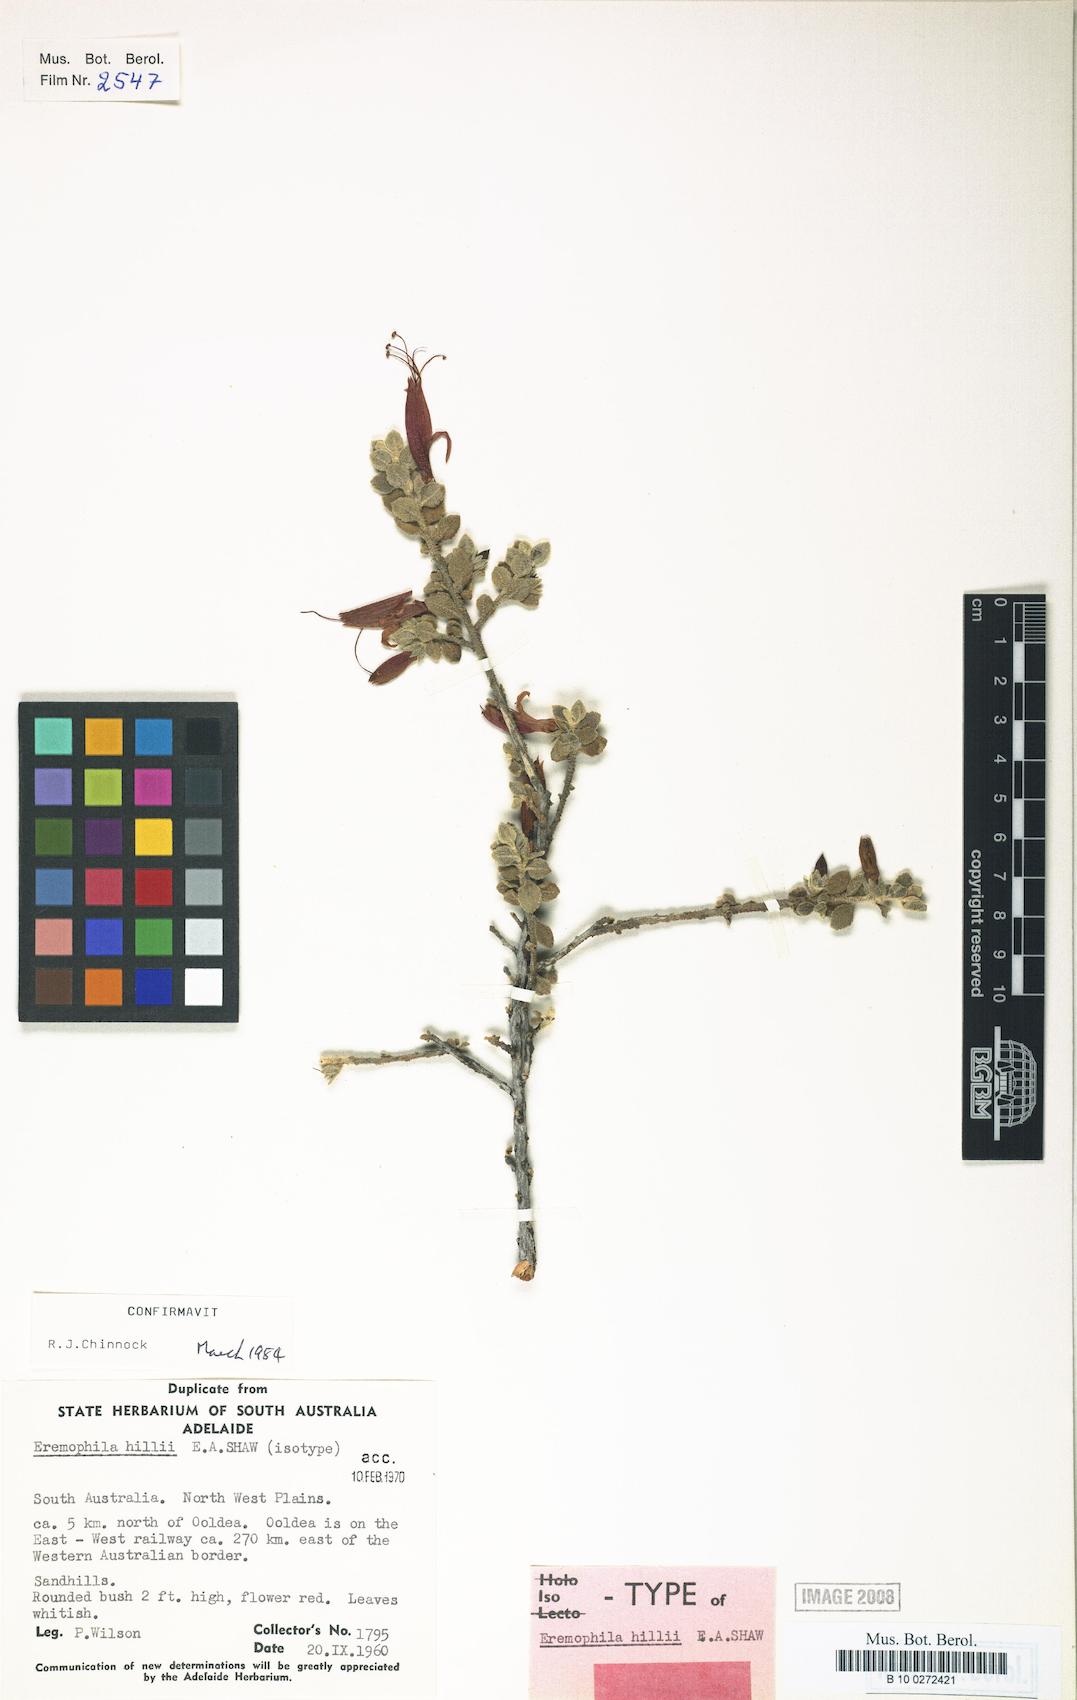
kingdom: Plantae
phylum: Tracheophyta
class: Magnoliopsida
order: Lamiales
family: Scrophulariaceae
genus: Eremophila
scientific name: Eremophila hillii
